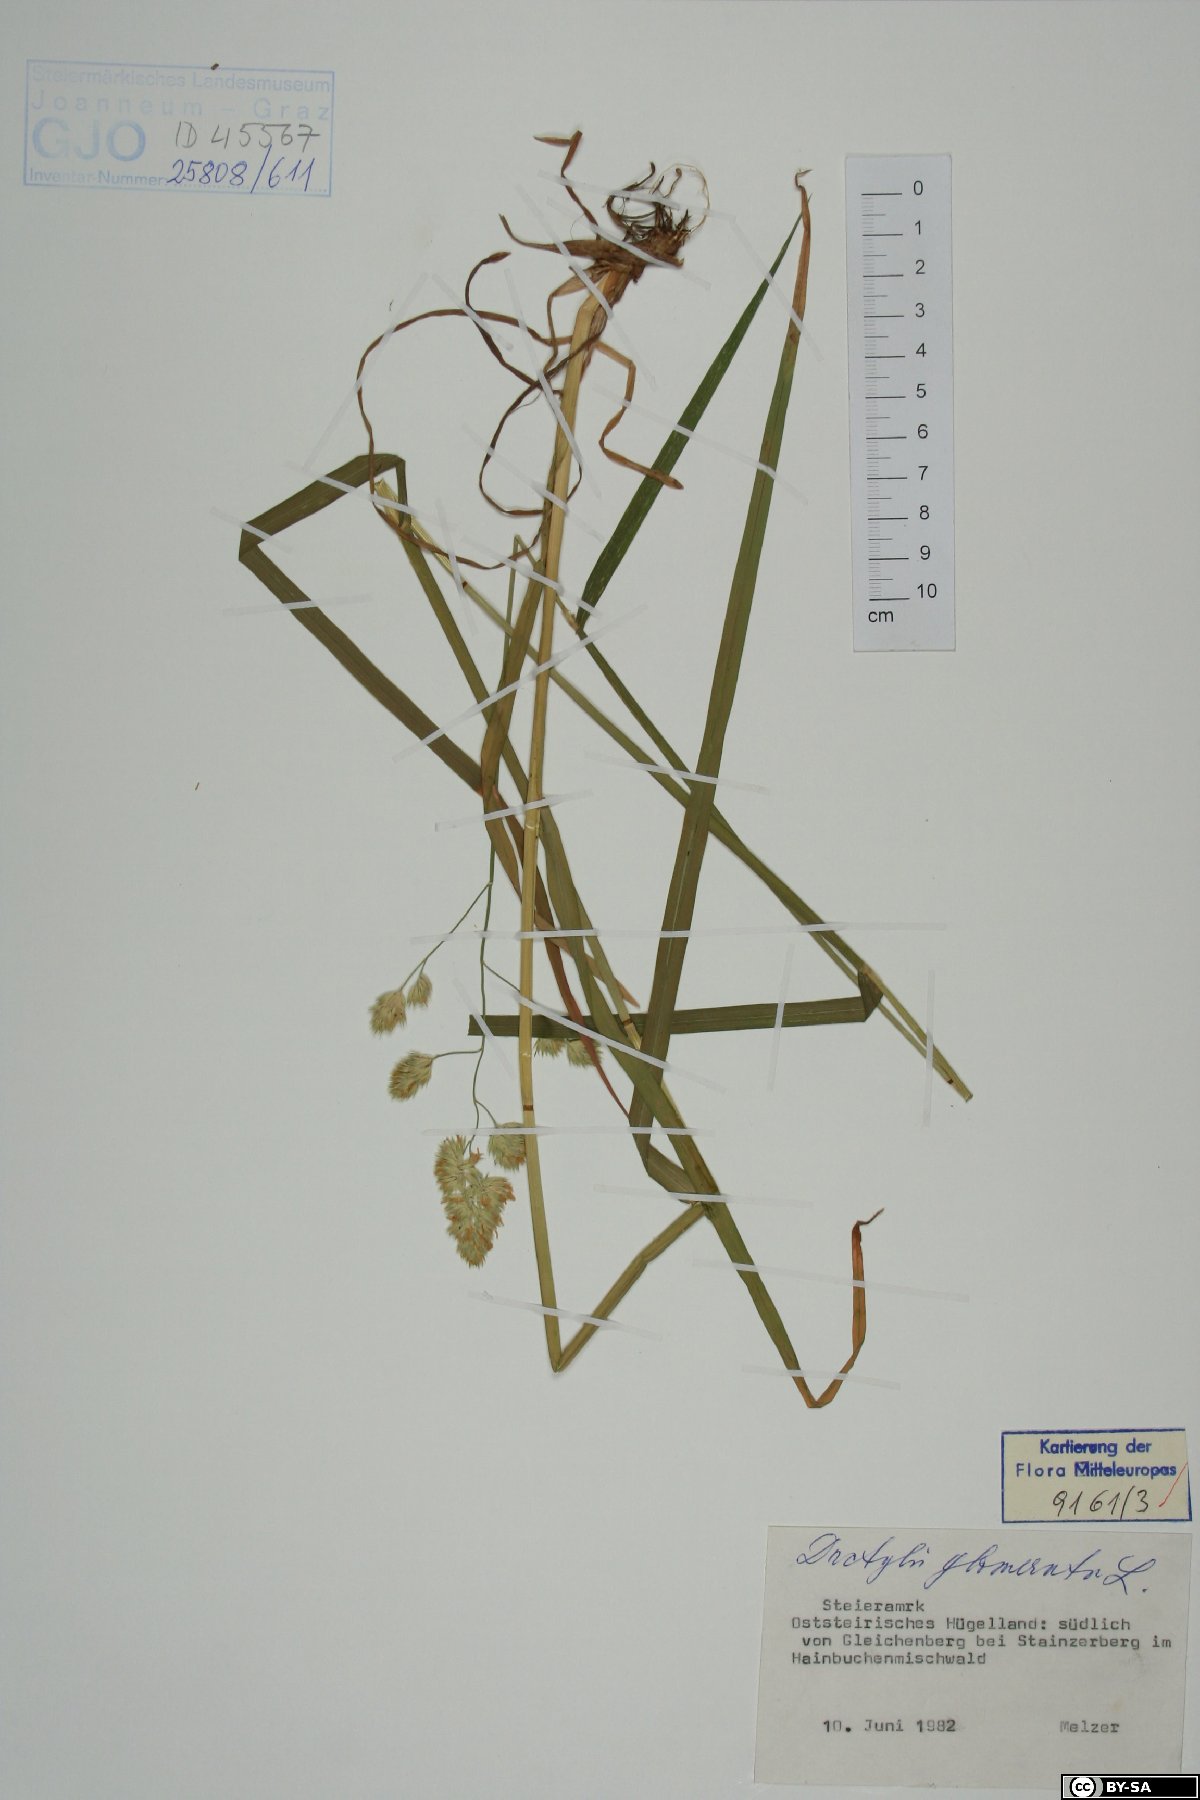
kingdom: Plantae
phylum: Tracheophyta
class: Liliopsida
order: Poales
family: Poaceae
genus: Dactylis
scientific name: Dactylis glomerata
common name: Orchardgrass
